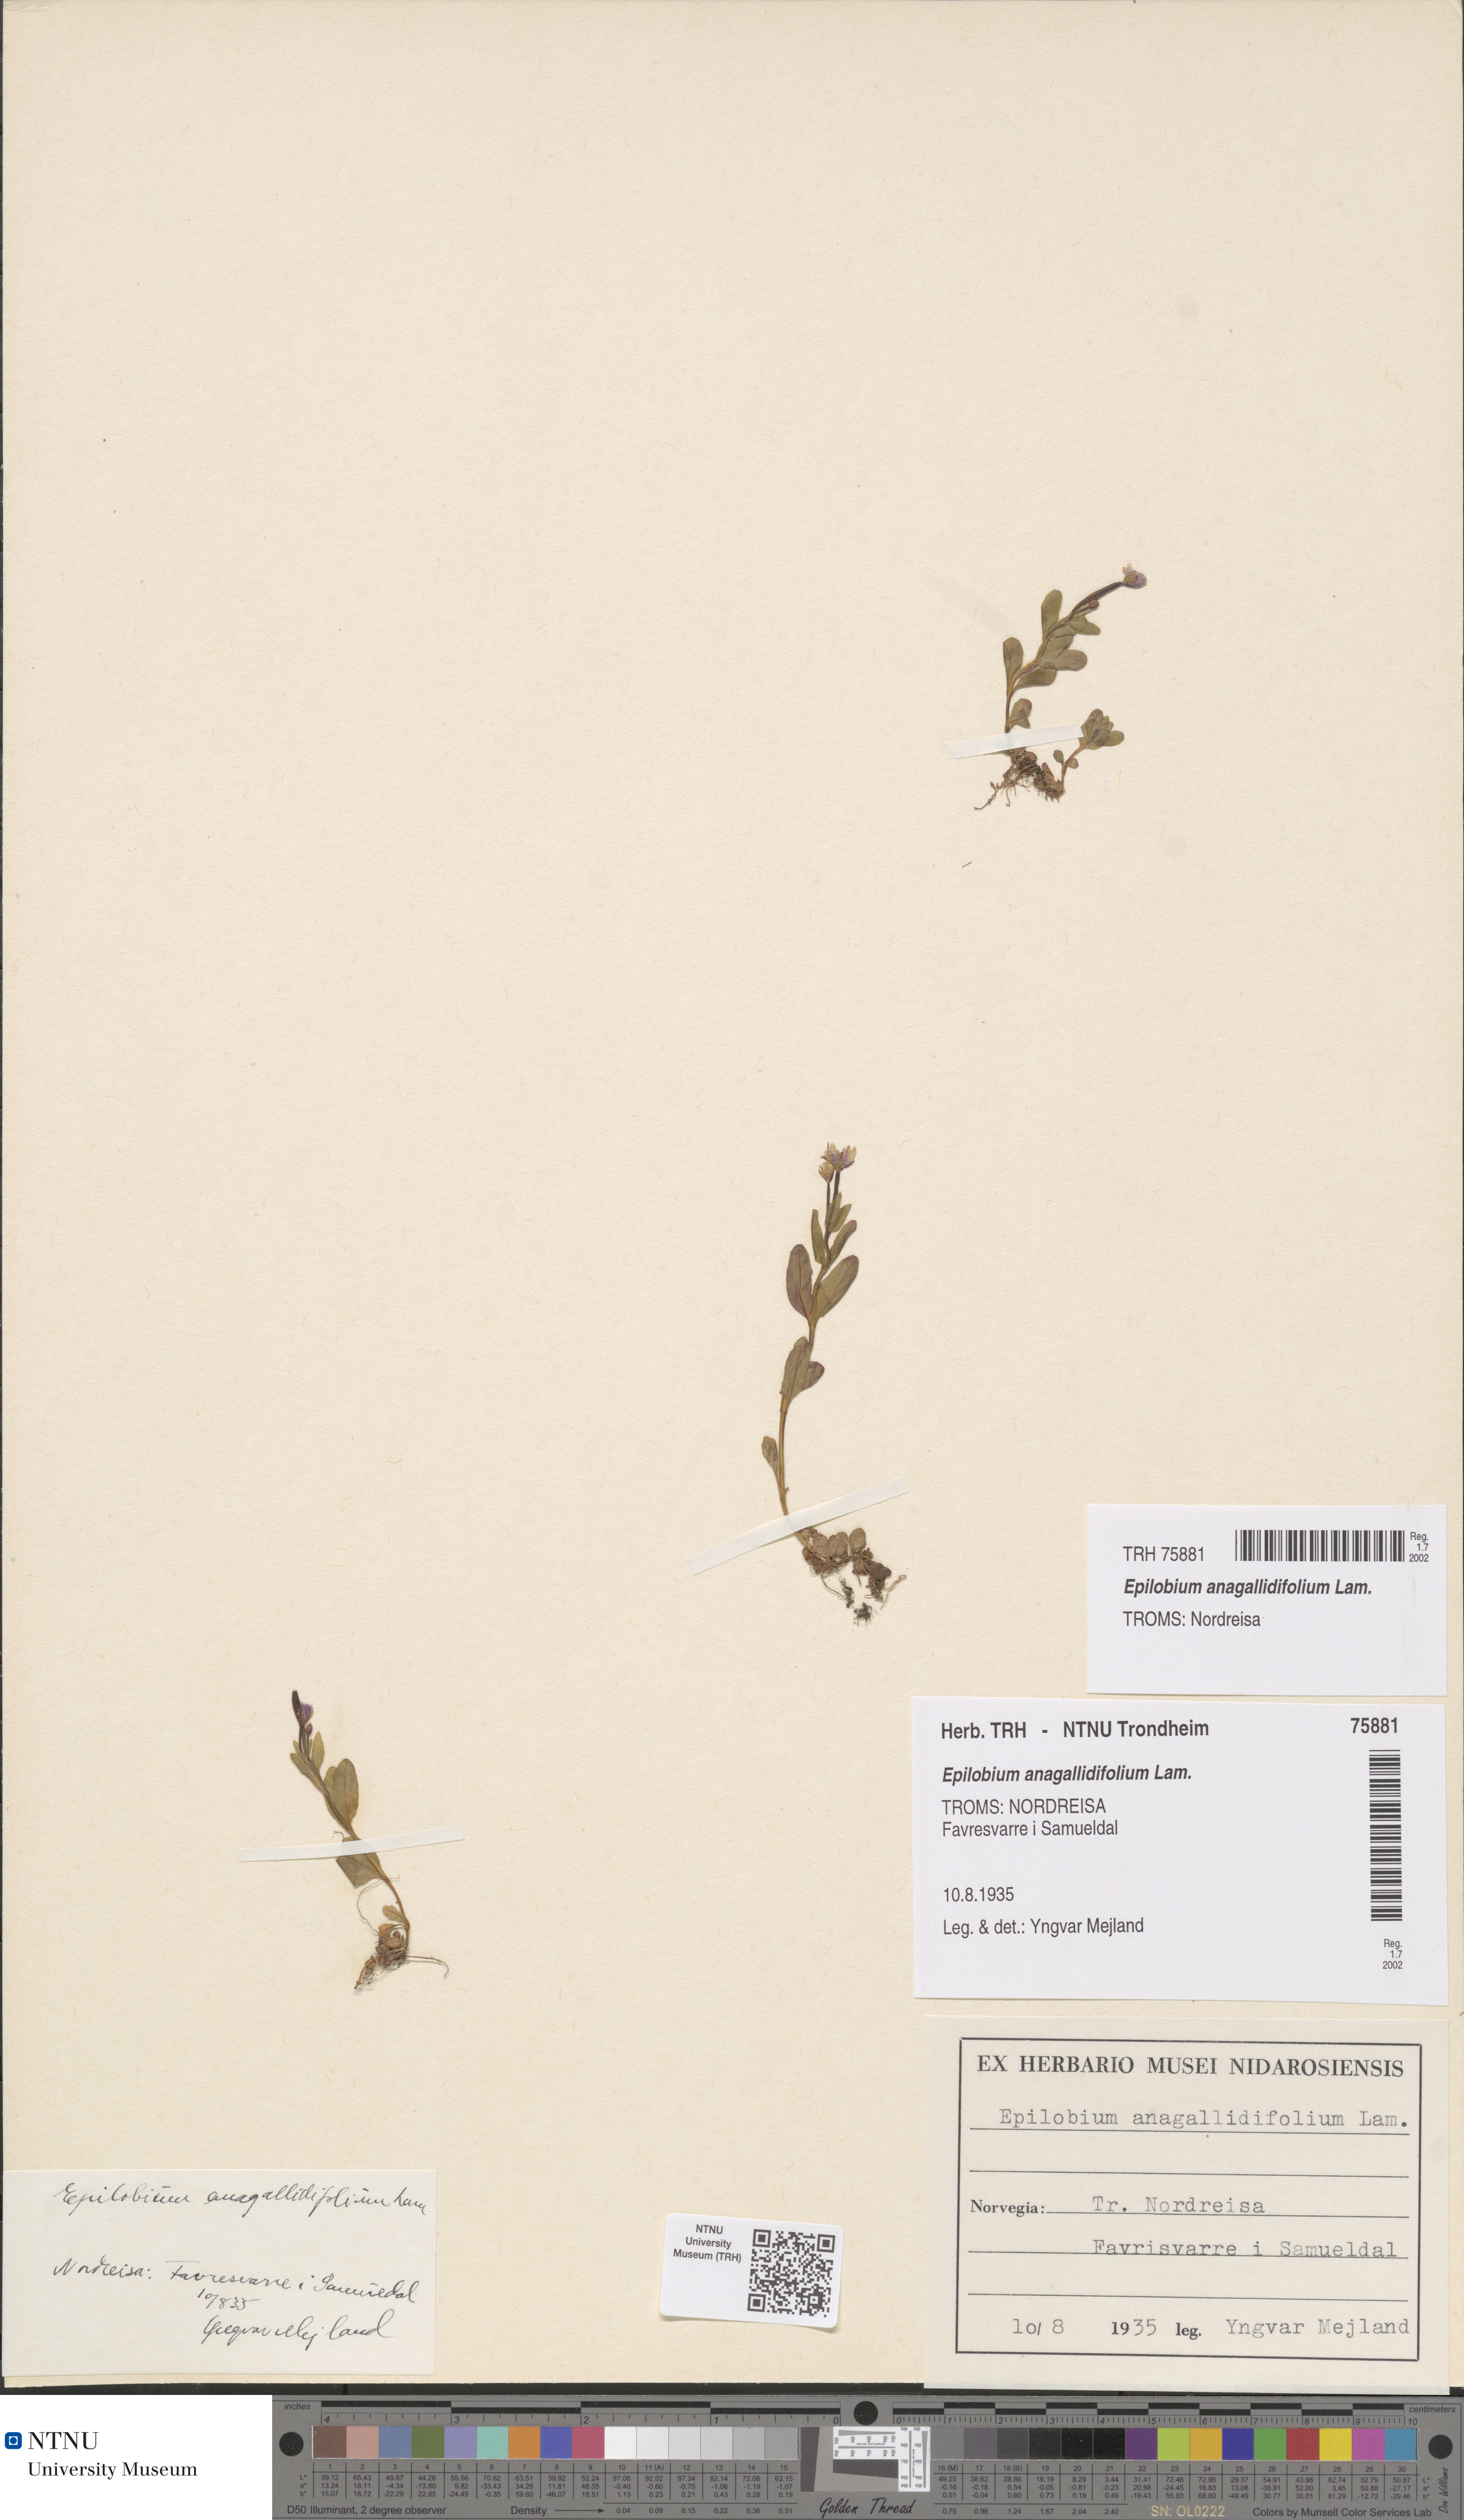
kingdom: Plantae
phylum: Tracheophyta
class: Magnoliopsida
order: Myrtales
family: Onagraceae
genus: Epilobium
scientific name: Epilobium anagallidifolium
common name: Alpine willowherb
